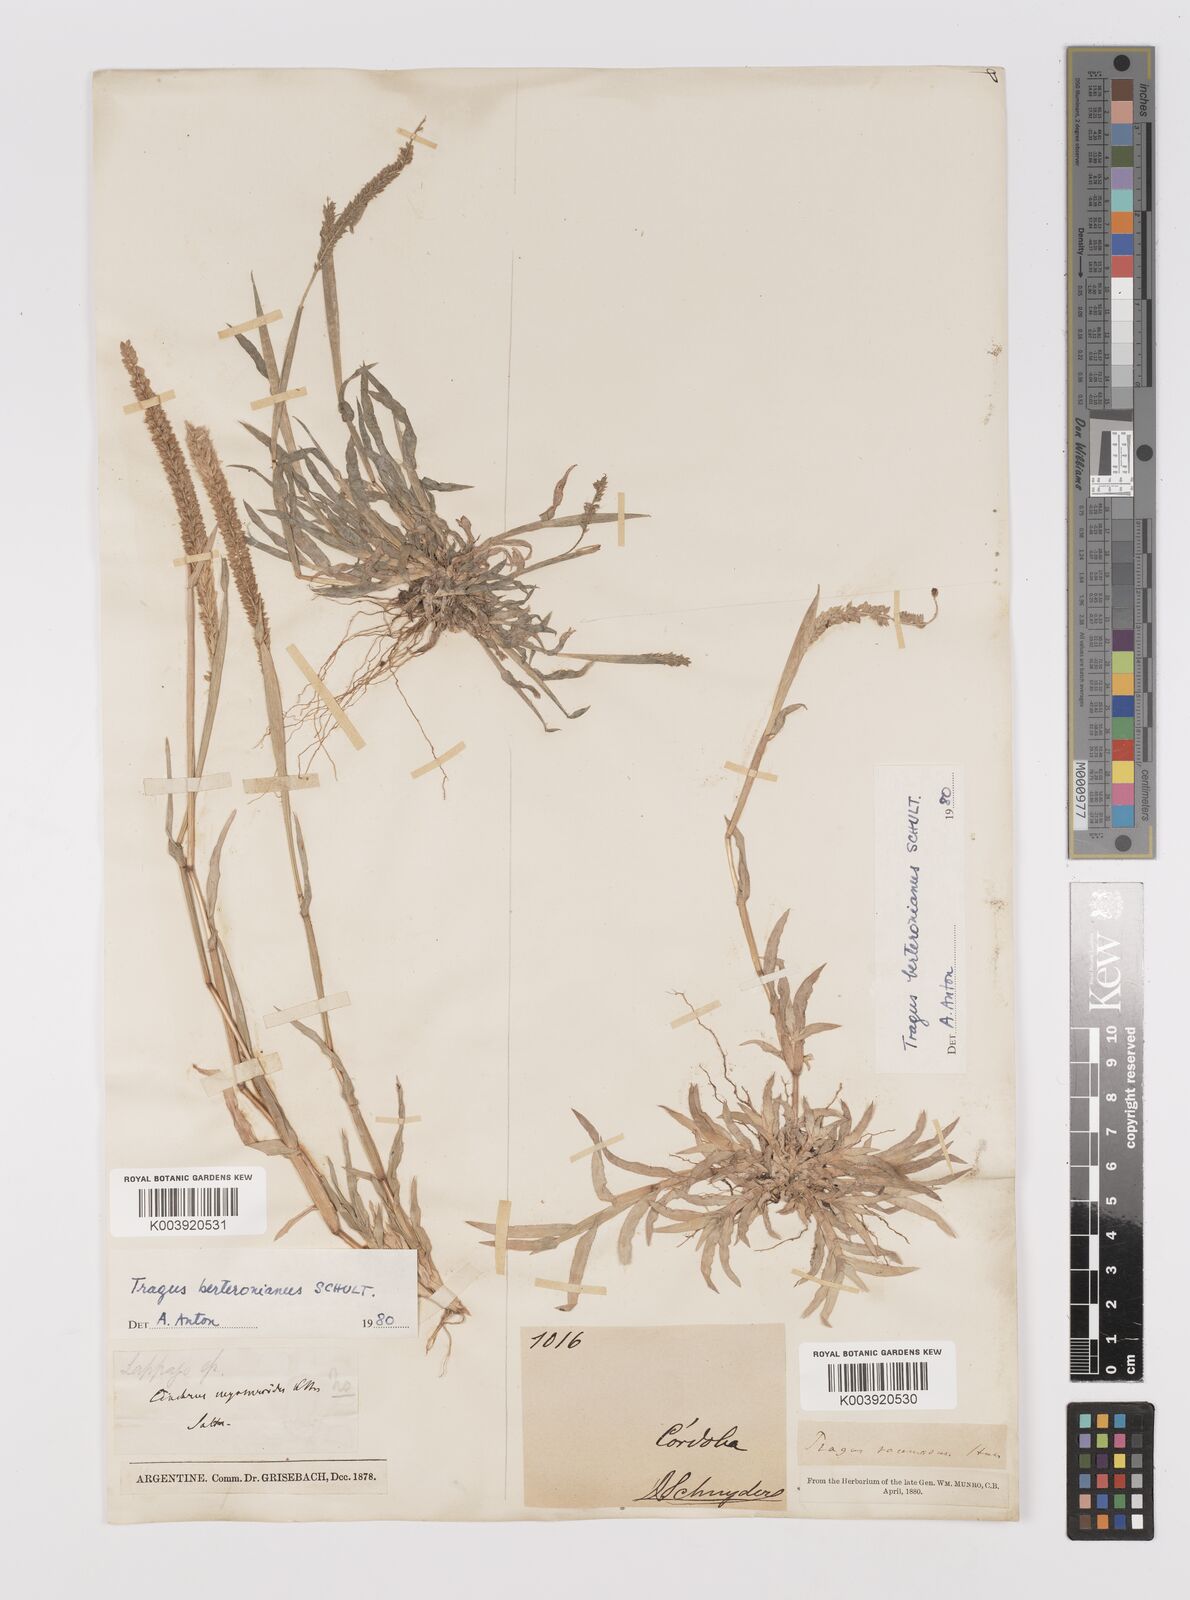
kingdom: Plantae
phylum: Tracheophyta
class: Liliopsida
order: Poales
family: Poaceae
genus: Tragus
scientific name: Tragus berteronianus
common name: African bur-grass
